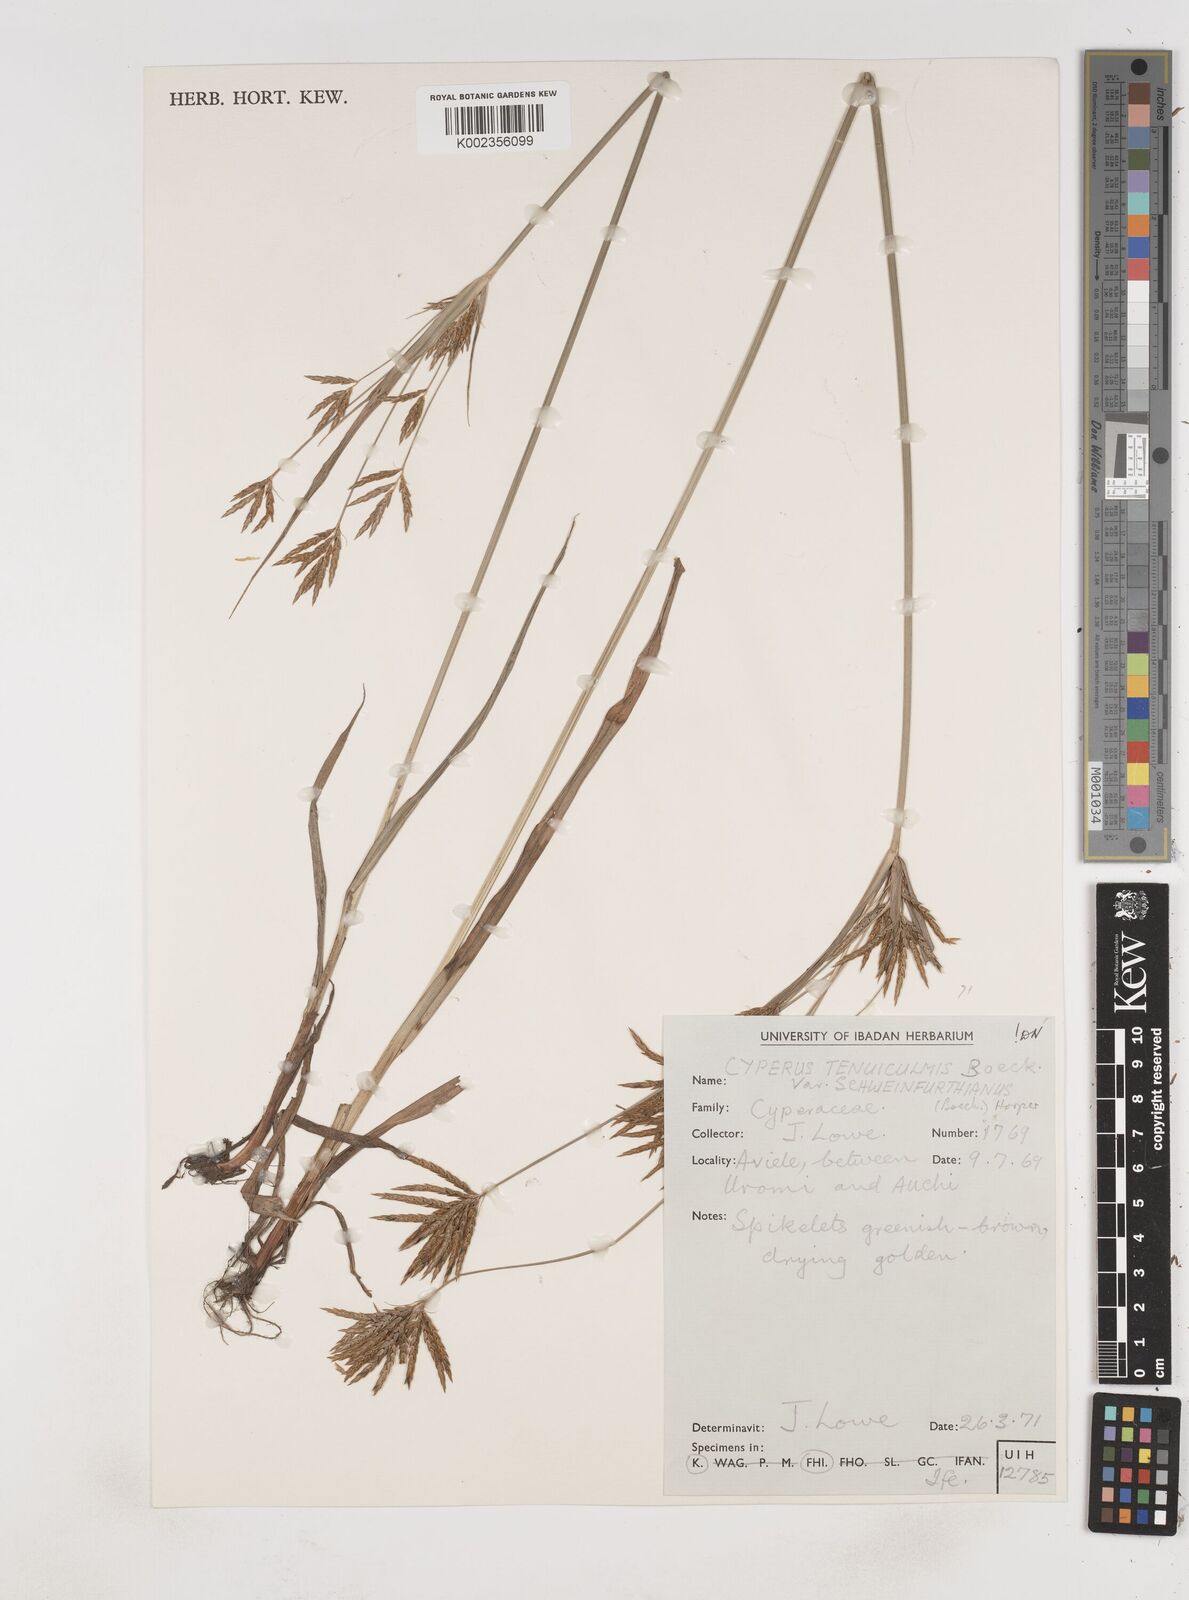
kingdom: Plantae
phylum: Tracheophyta
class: Liliopsida
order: Poales
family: Cyperaceae
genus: Cyperus
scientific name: Cyperus tenuiculmis
